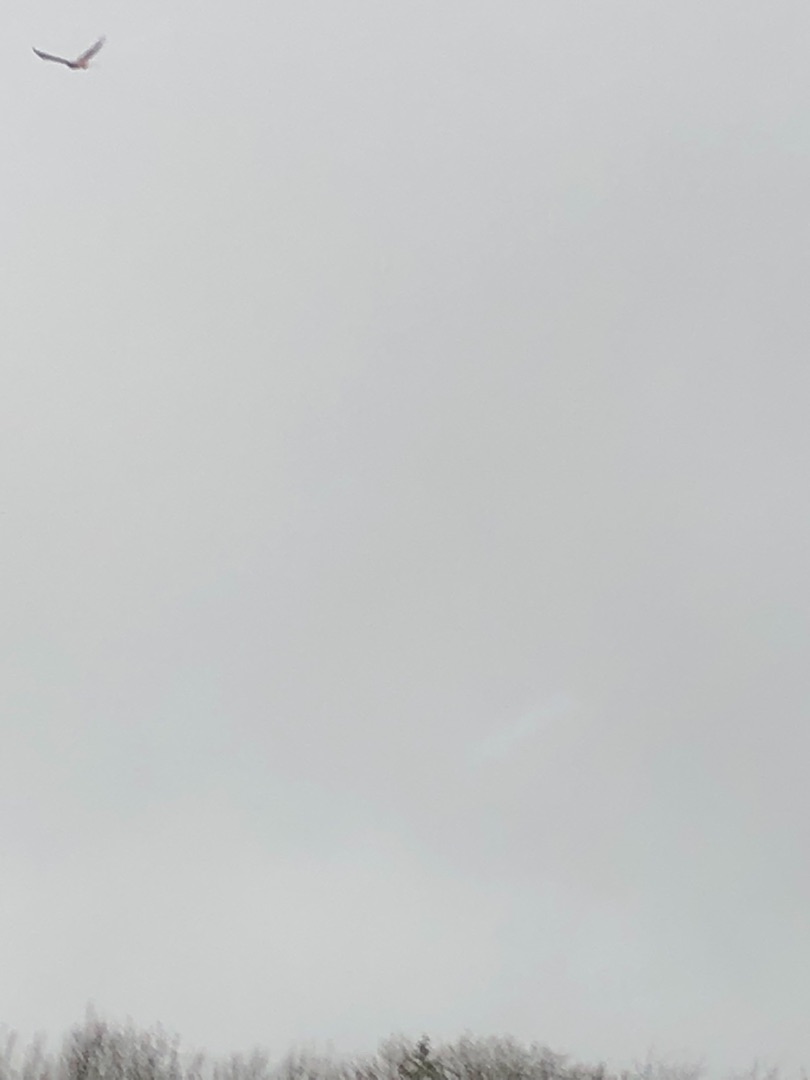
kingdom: Animalia
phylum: Chordata
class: Aves
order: Accipitriformes
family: Accipitridae
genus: Milvus
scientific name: Milvus milvus
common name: Rød glente
